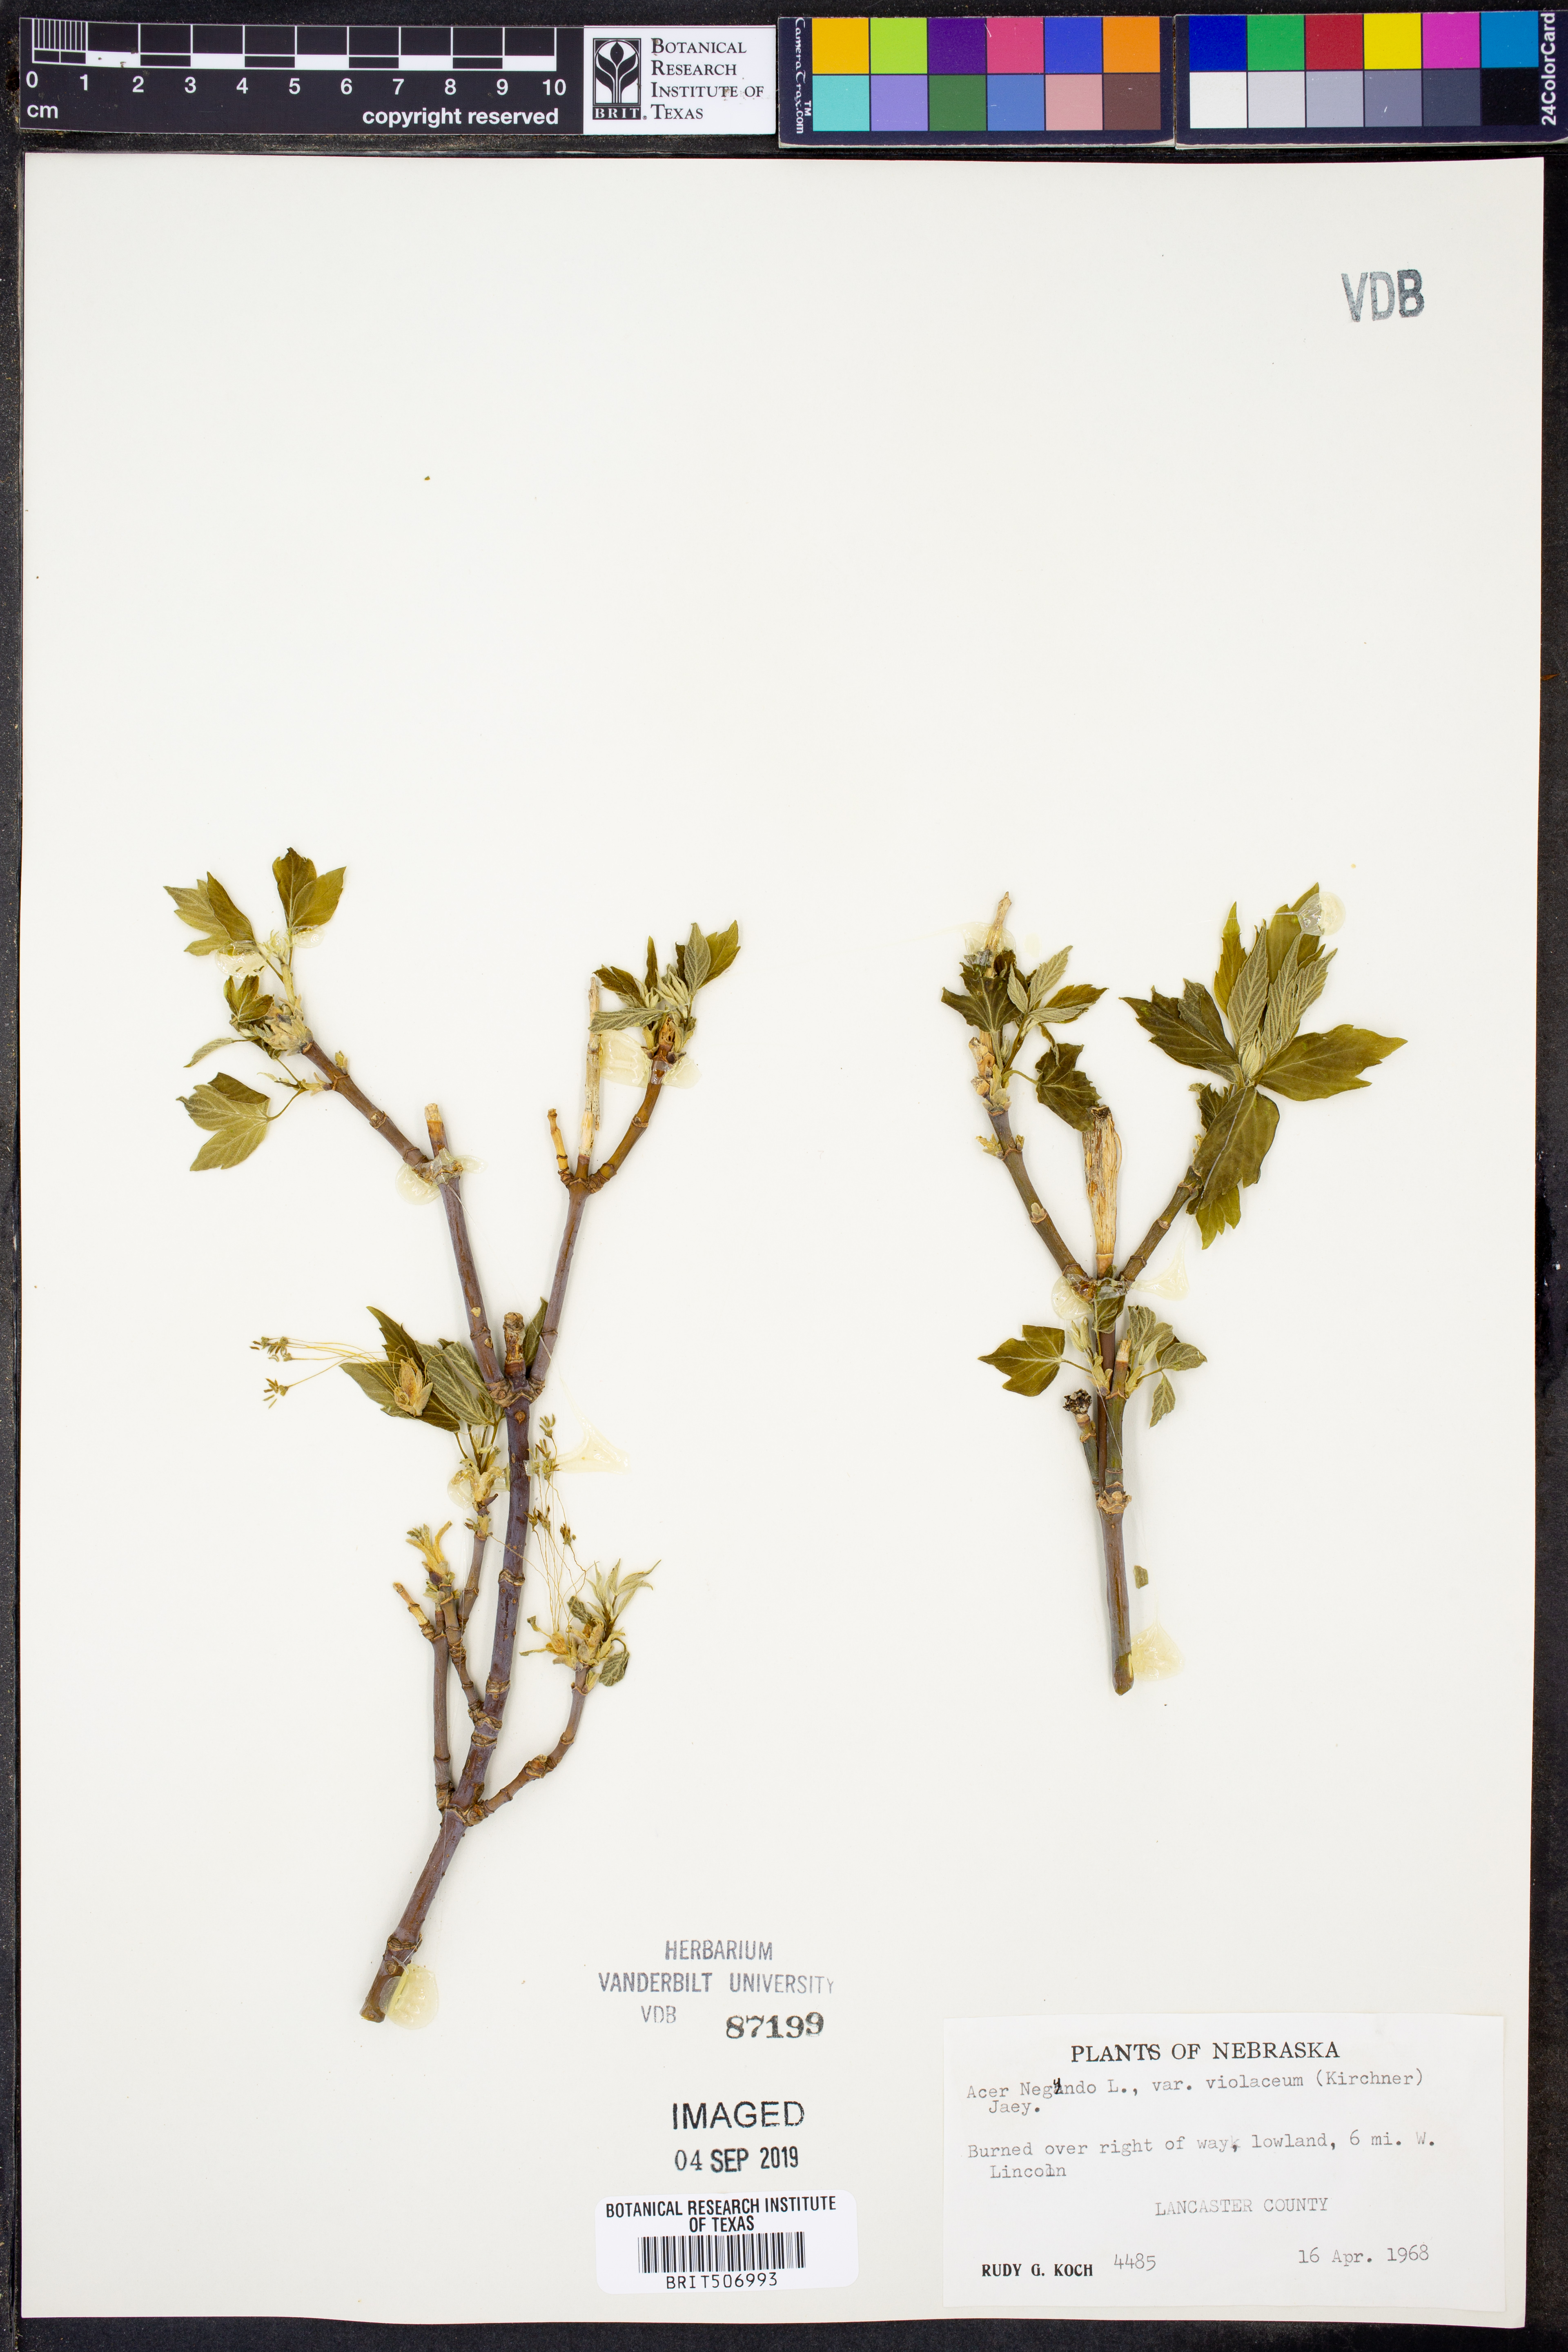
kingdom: Plantae
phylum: Tracheophyta
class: Magnoliopsida
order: Sapindales
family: Sapindaceae
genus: Acer
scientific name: Acer negundo
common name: Ashleaf maple
